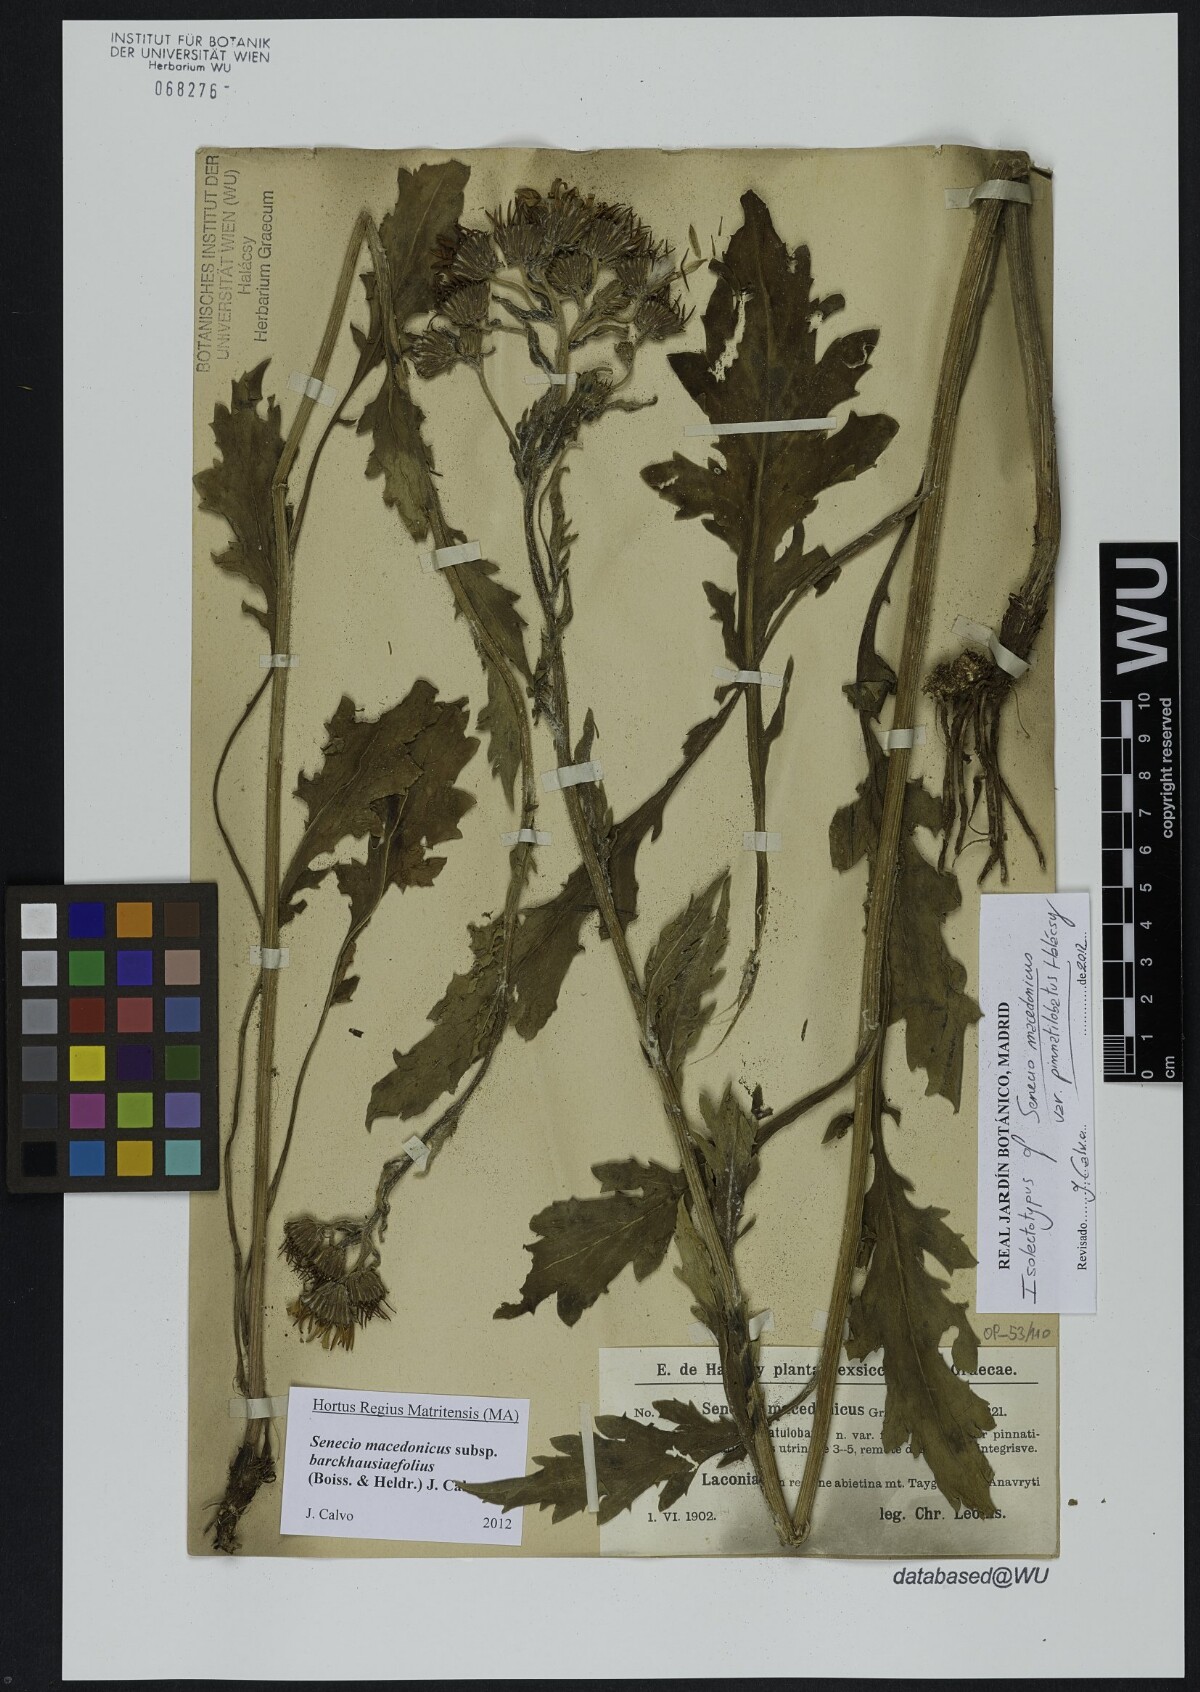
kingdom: Plantae
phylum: Tracheophyta
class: Magnoliopsida
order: Asterales
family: Asteraceae
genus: Senecio
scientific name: Senecio macedonicus
